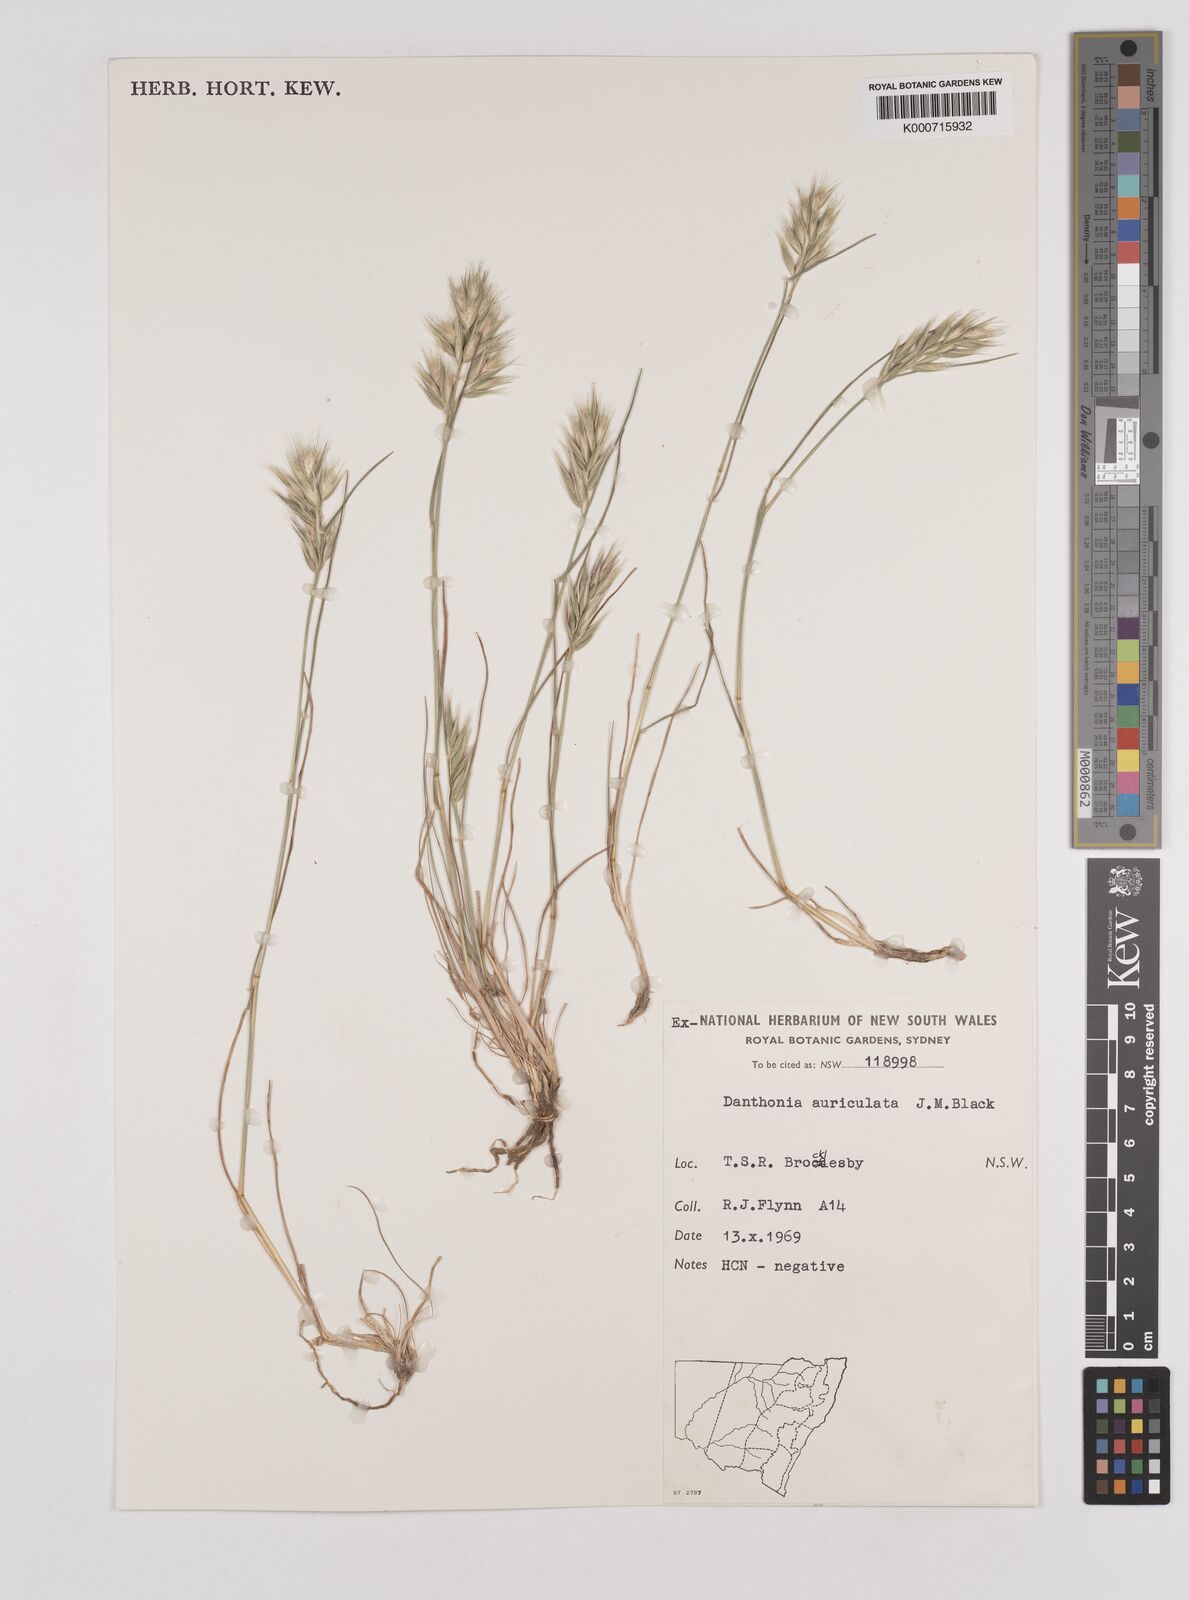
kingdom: Plantae
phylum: Tracheophyta
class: Liliopsida
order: Poales
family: Poaceae
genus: Rytidosperma
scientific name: Rytidosperma auriculatum
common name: Lobed wallaby grass
